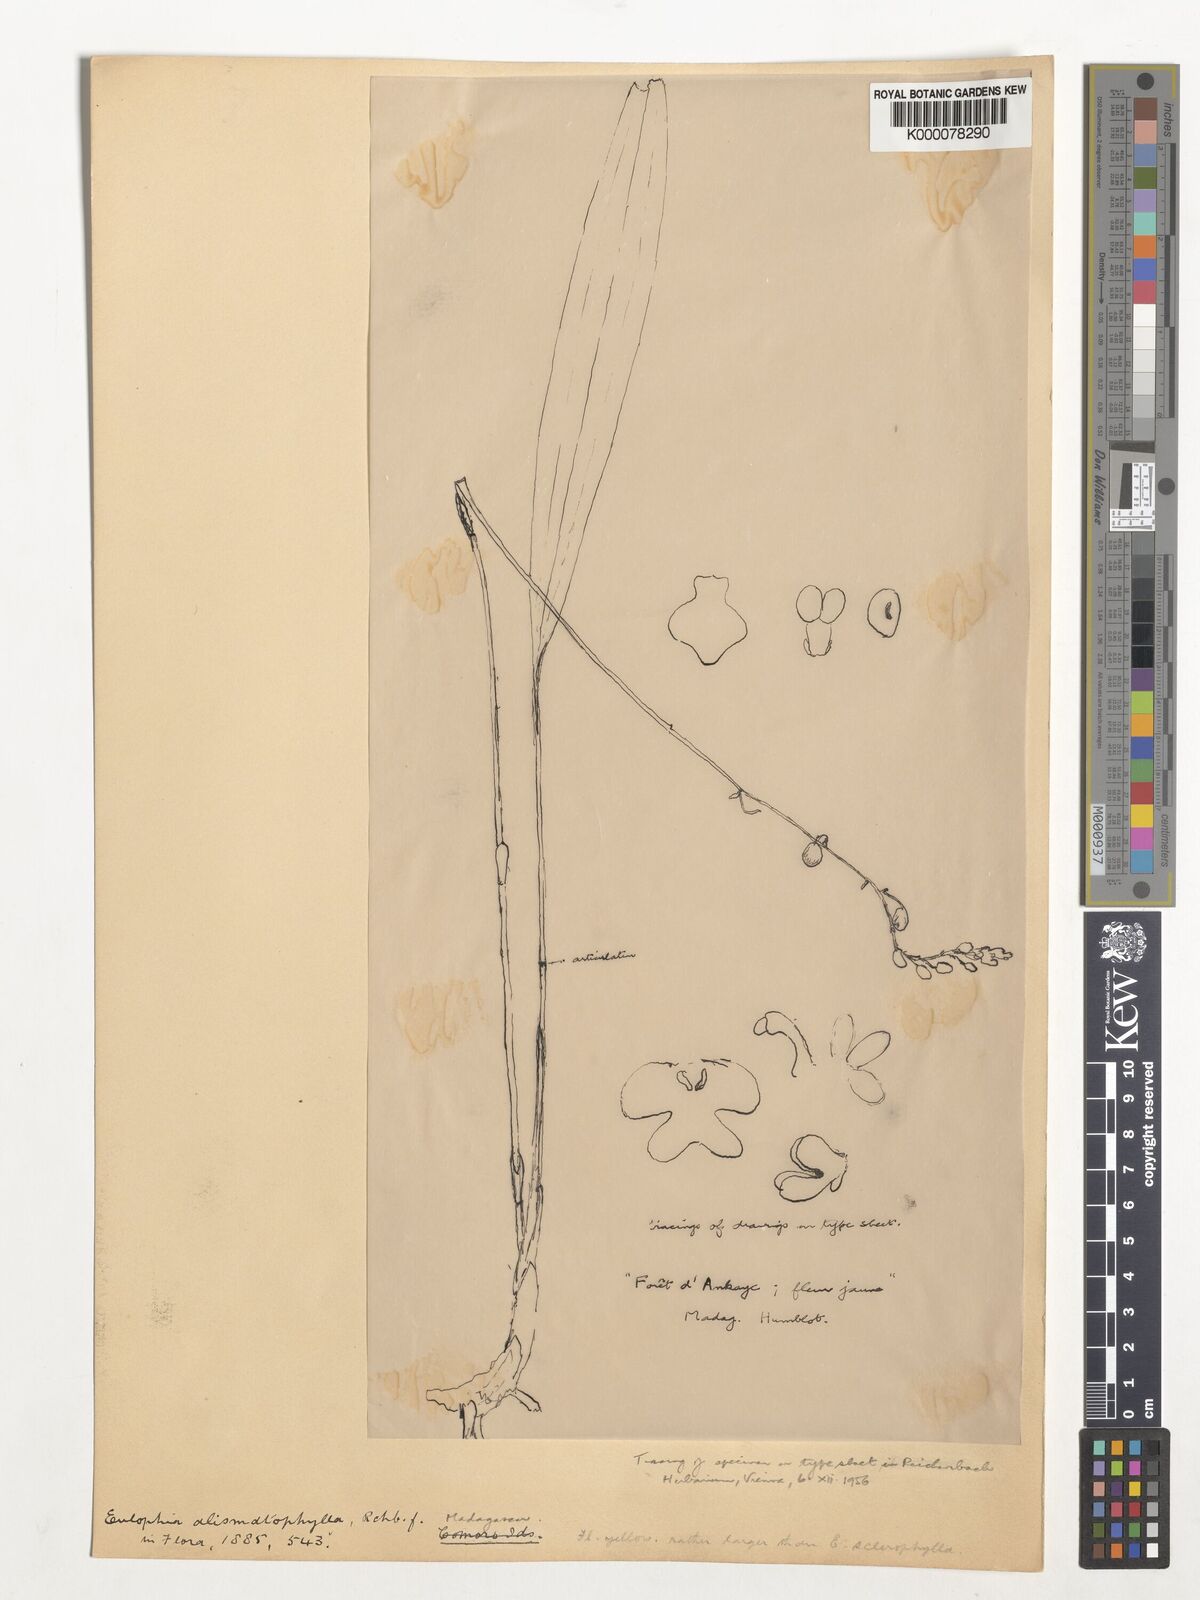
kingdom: Plantae
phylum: Tracheophyta
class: Liliopsida
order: Asparagales
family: Orchidaceae
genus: Eulophia
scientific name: Eulophia alismatophylla
